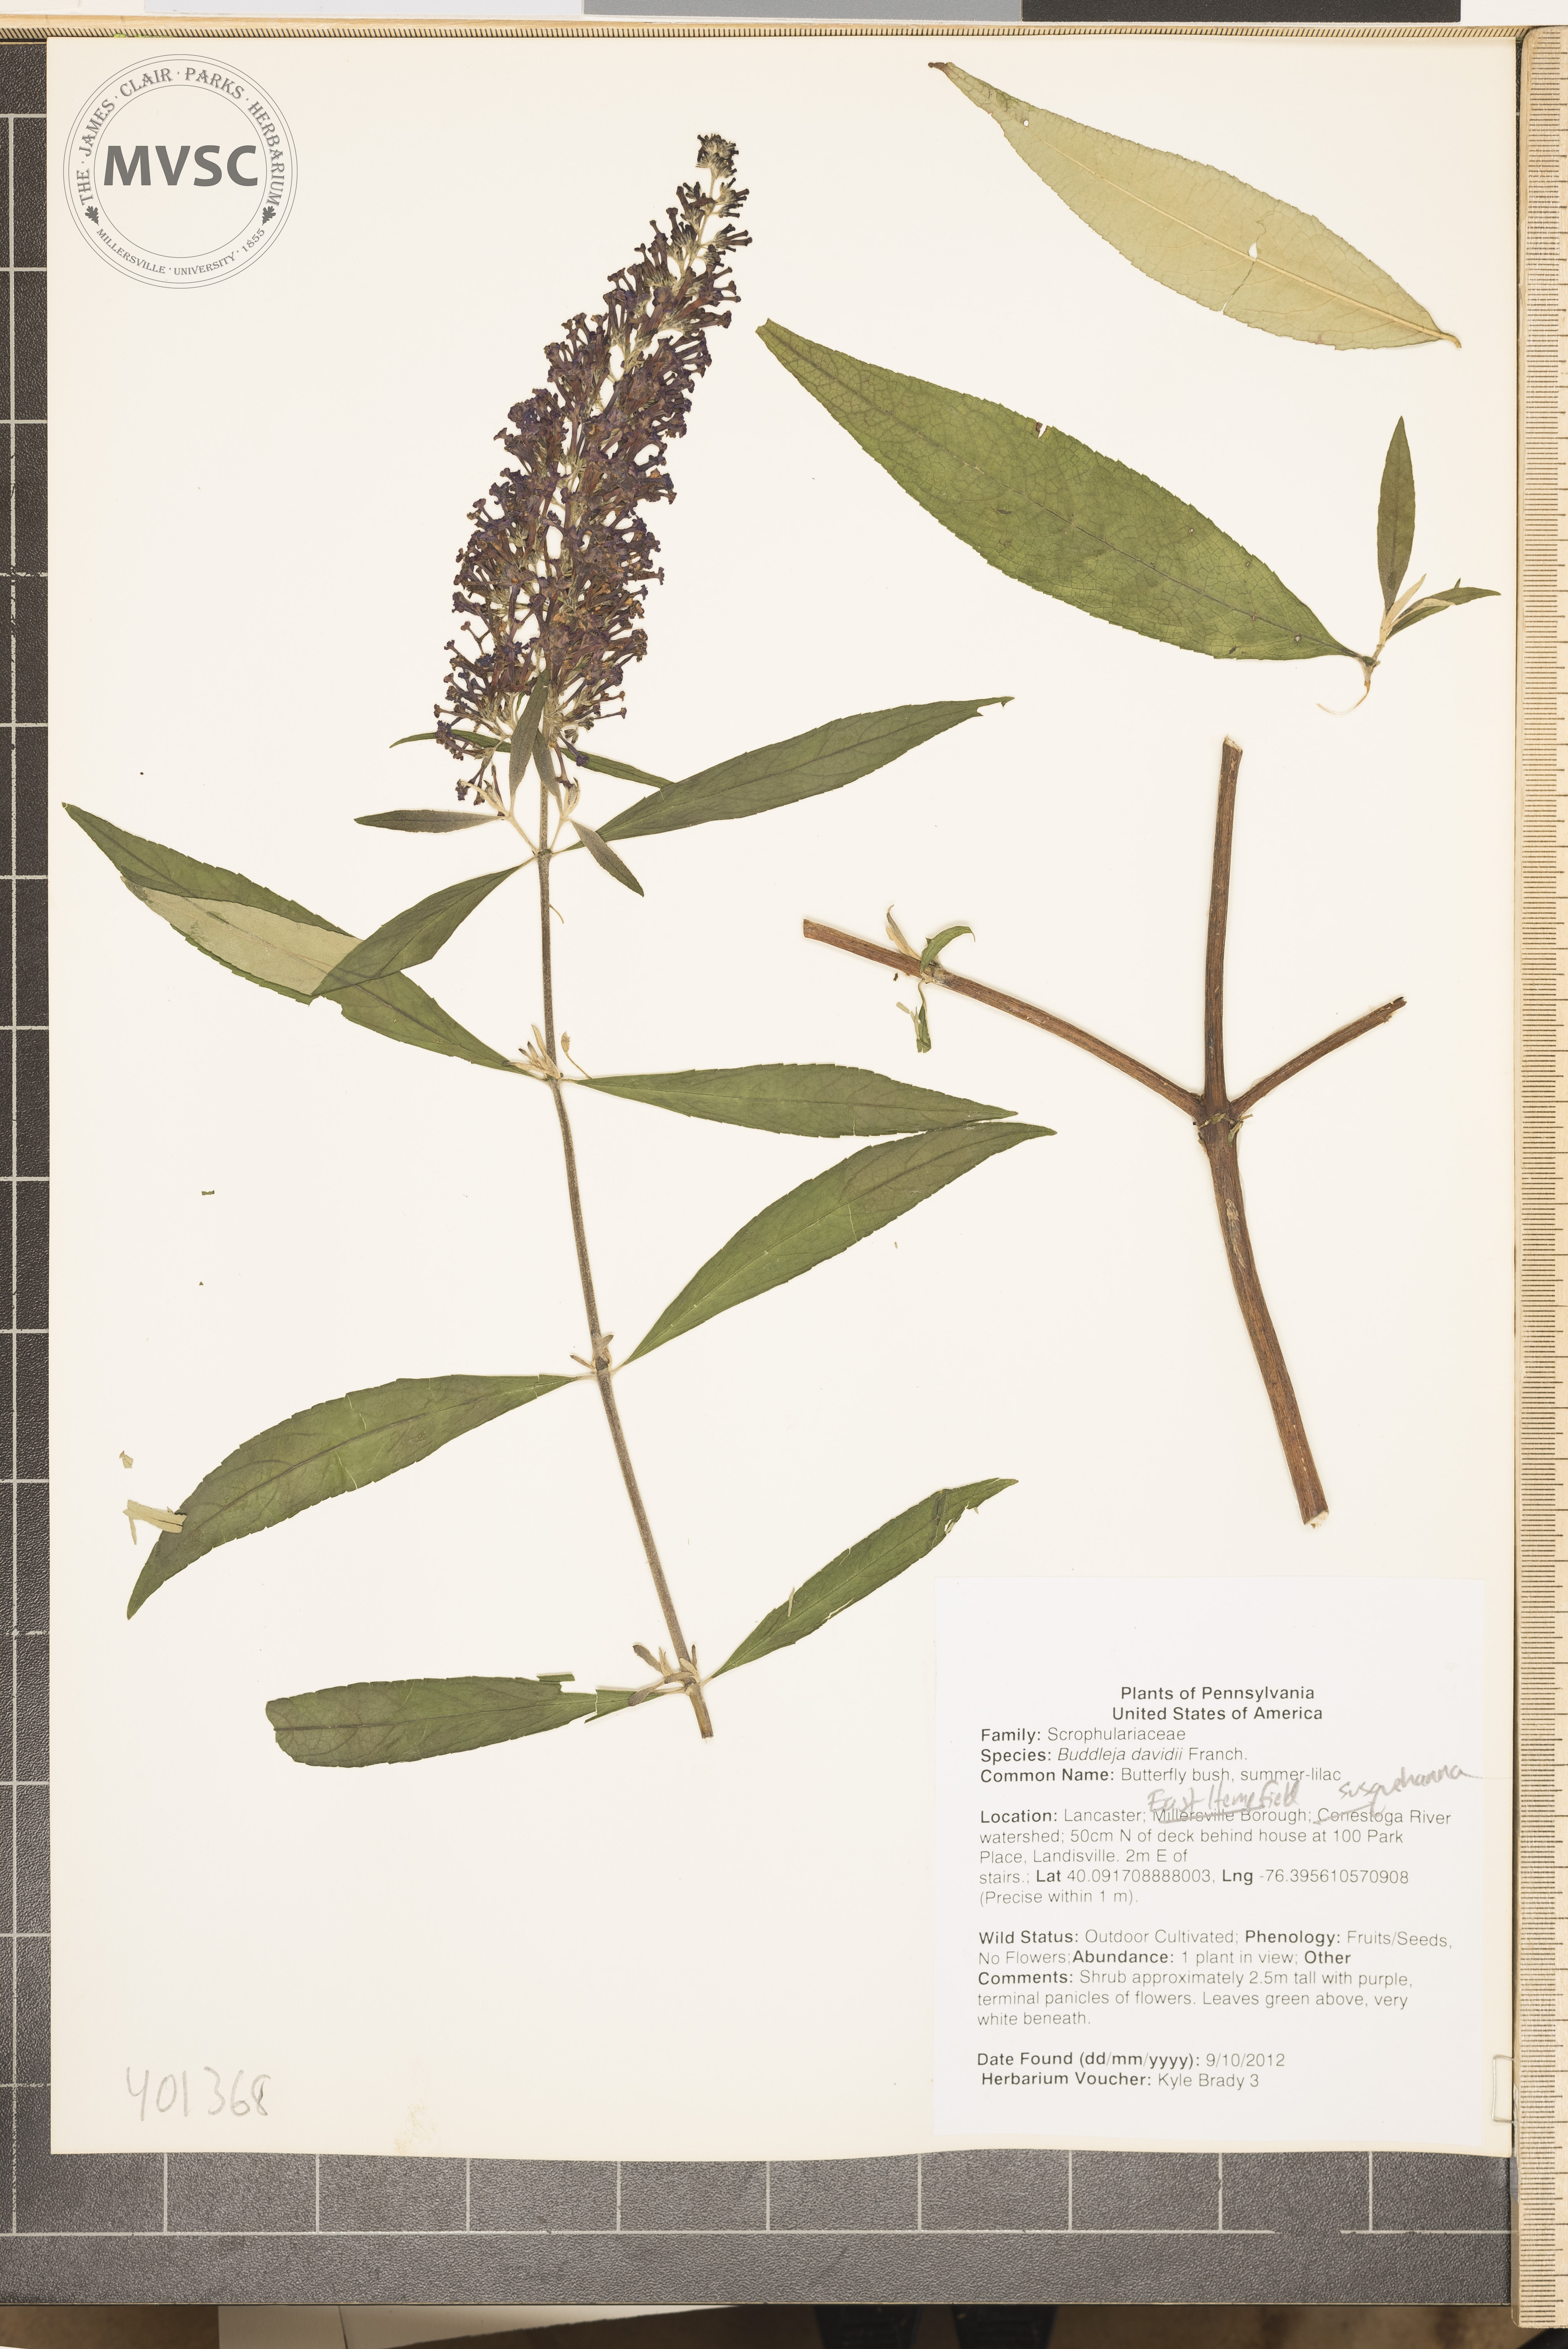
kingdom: Plantae
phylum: Tracheophyta
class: Magnoliopsida
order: Lamiales
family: Scrophulariaceae
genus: Buddleja
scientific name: Buddleja davidii
